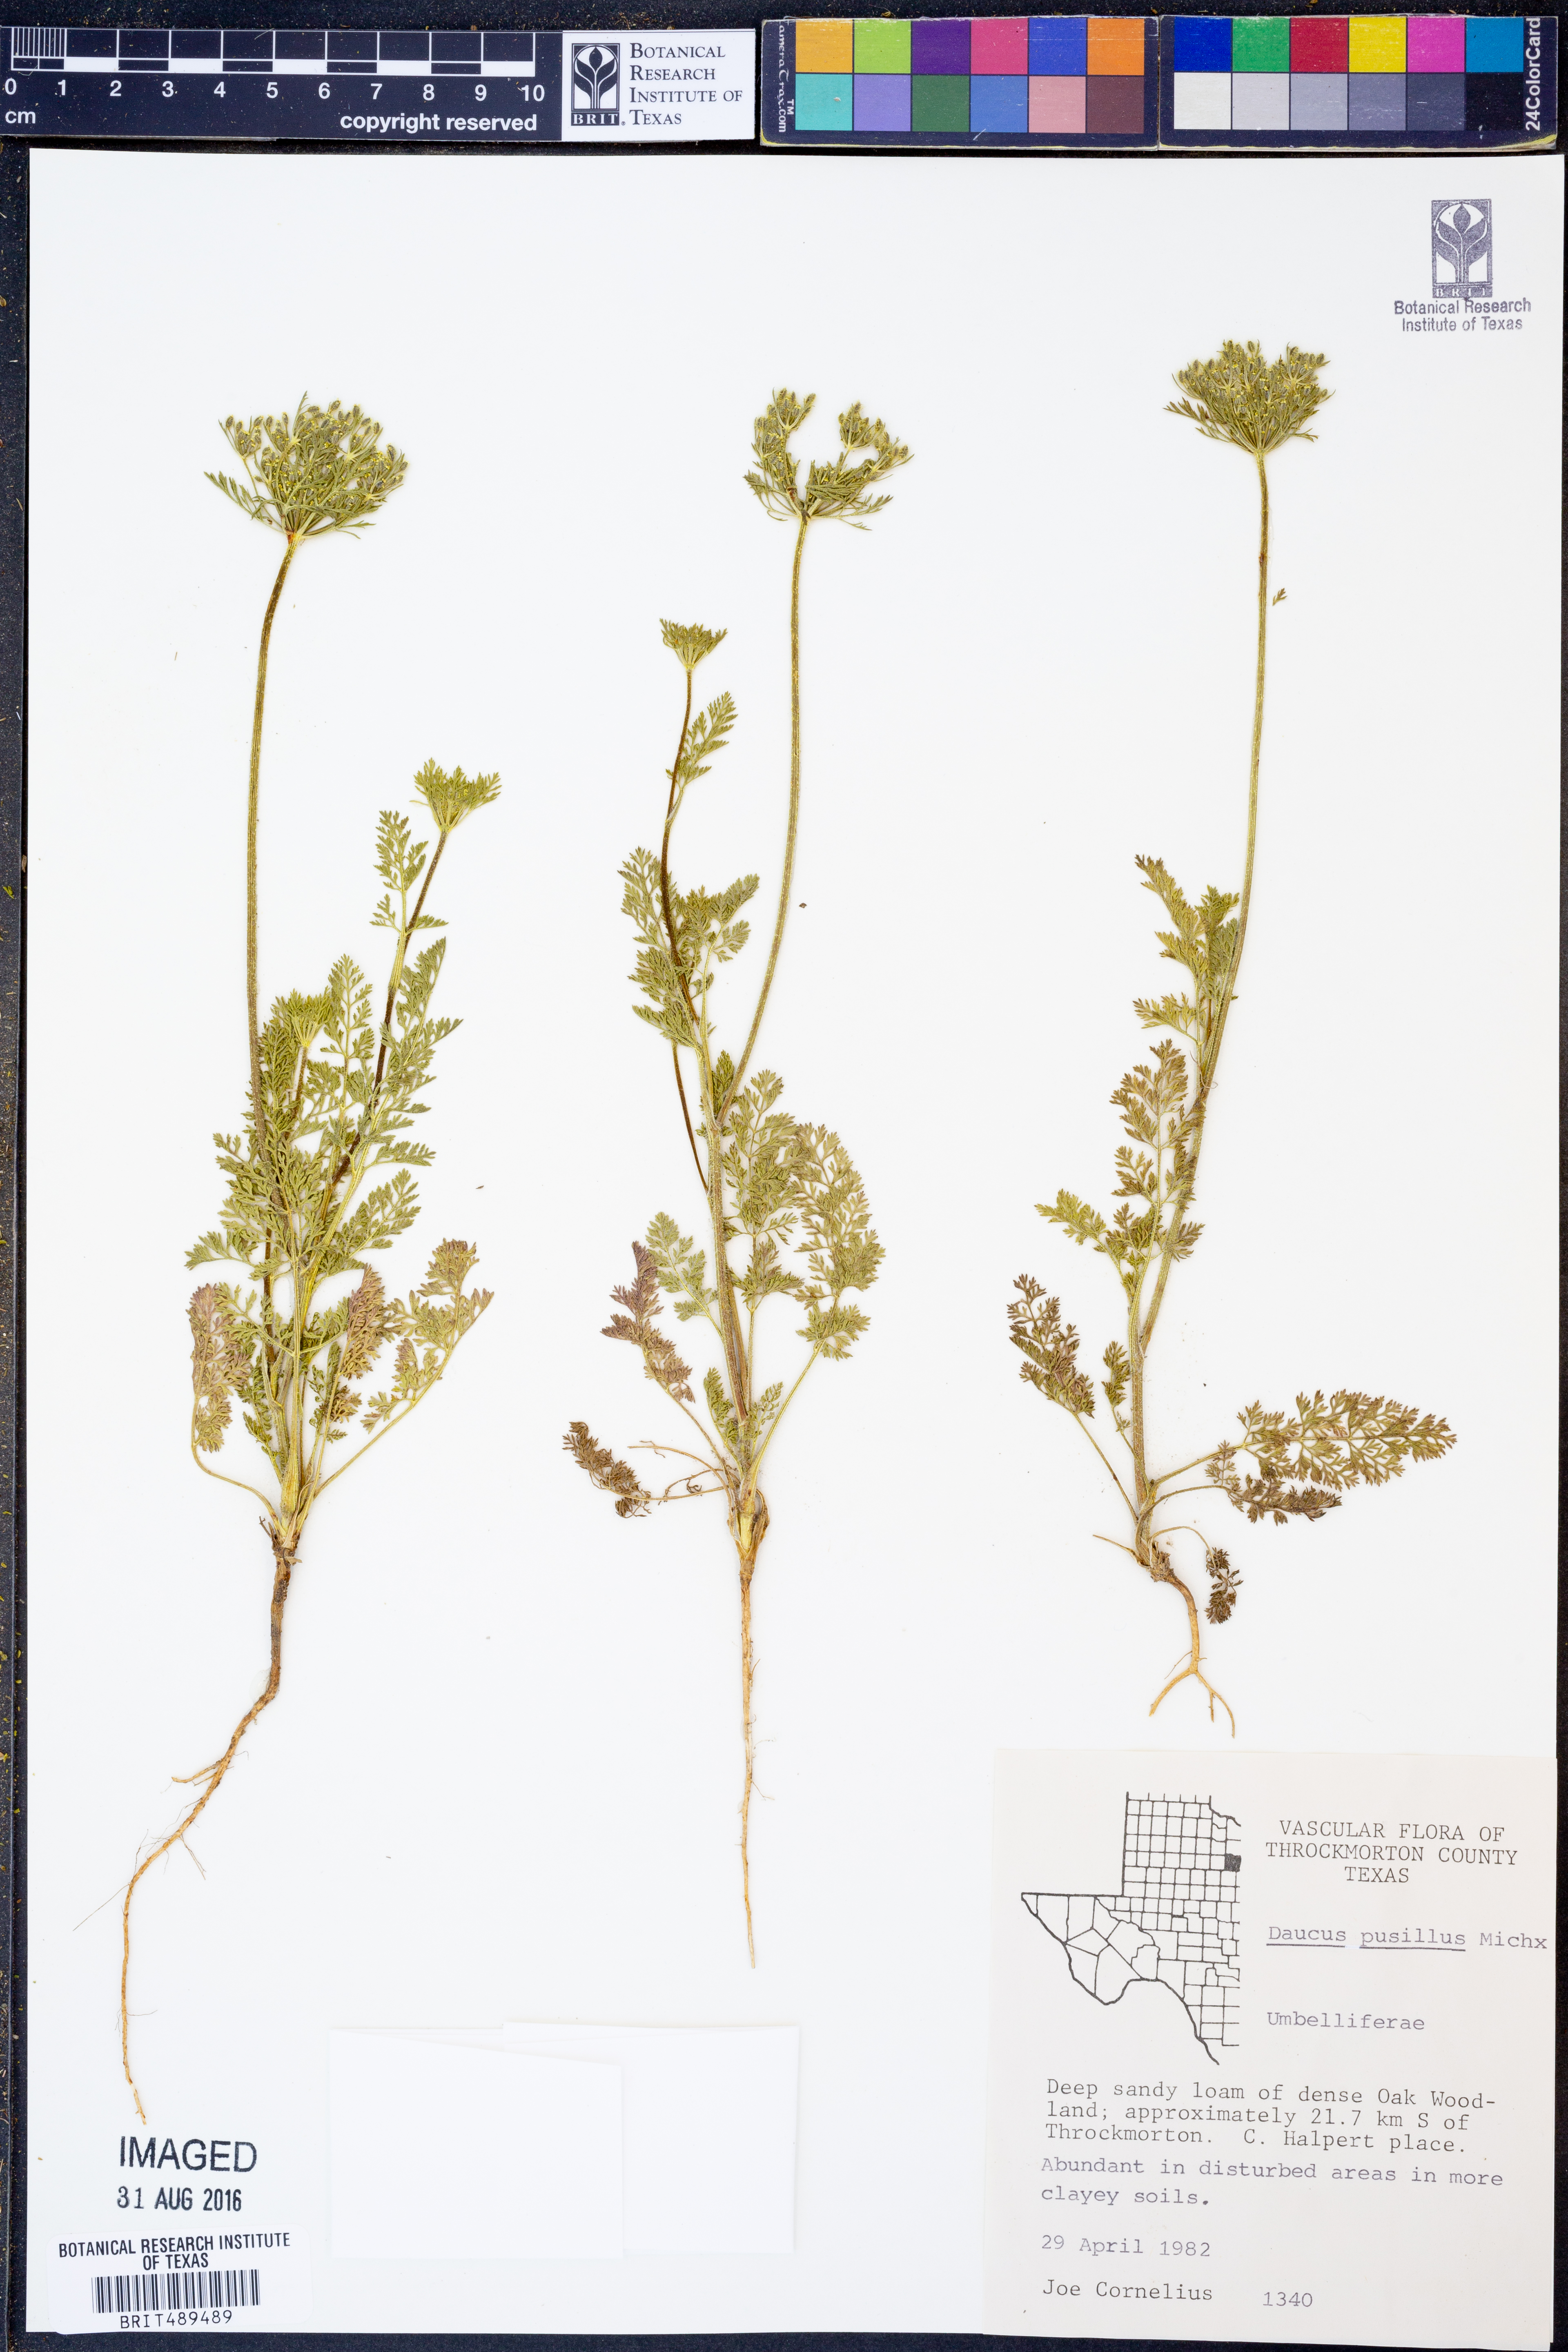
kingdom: Plantae
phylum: Tracheophyta
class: Magnoliopsida
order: Apiales
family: Apiaceae
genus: Daucus
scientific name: Daucus pusillus
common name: Southwest wild carrot
